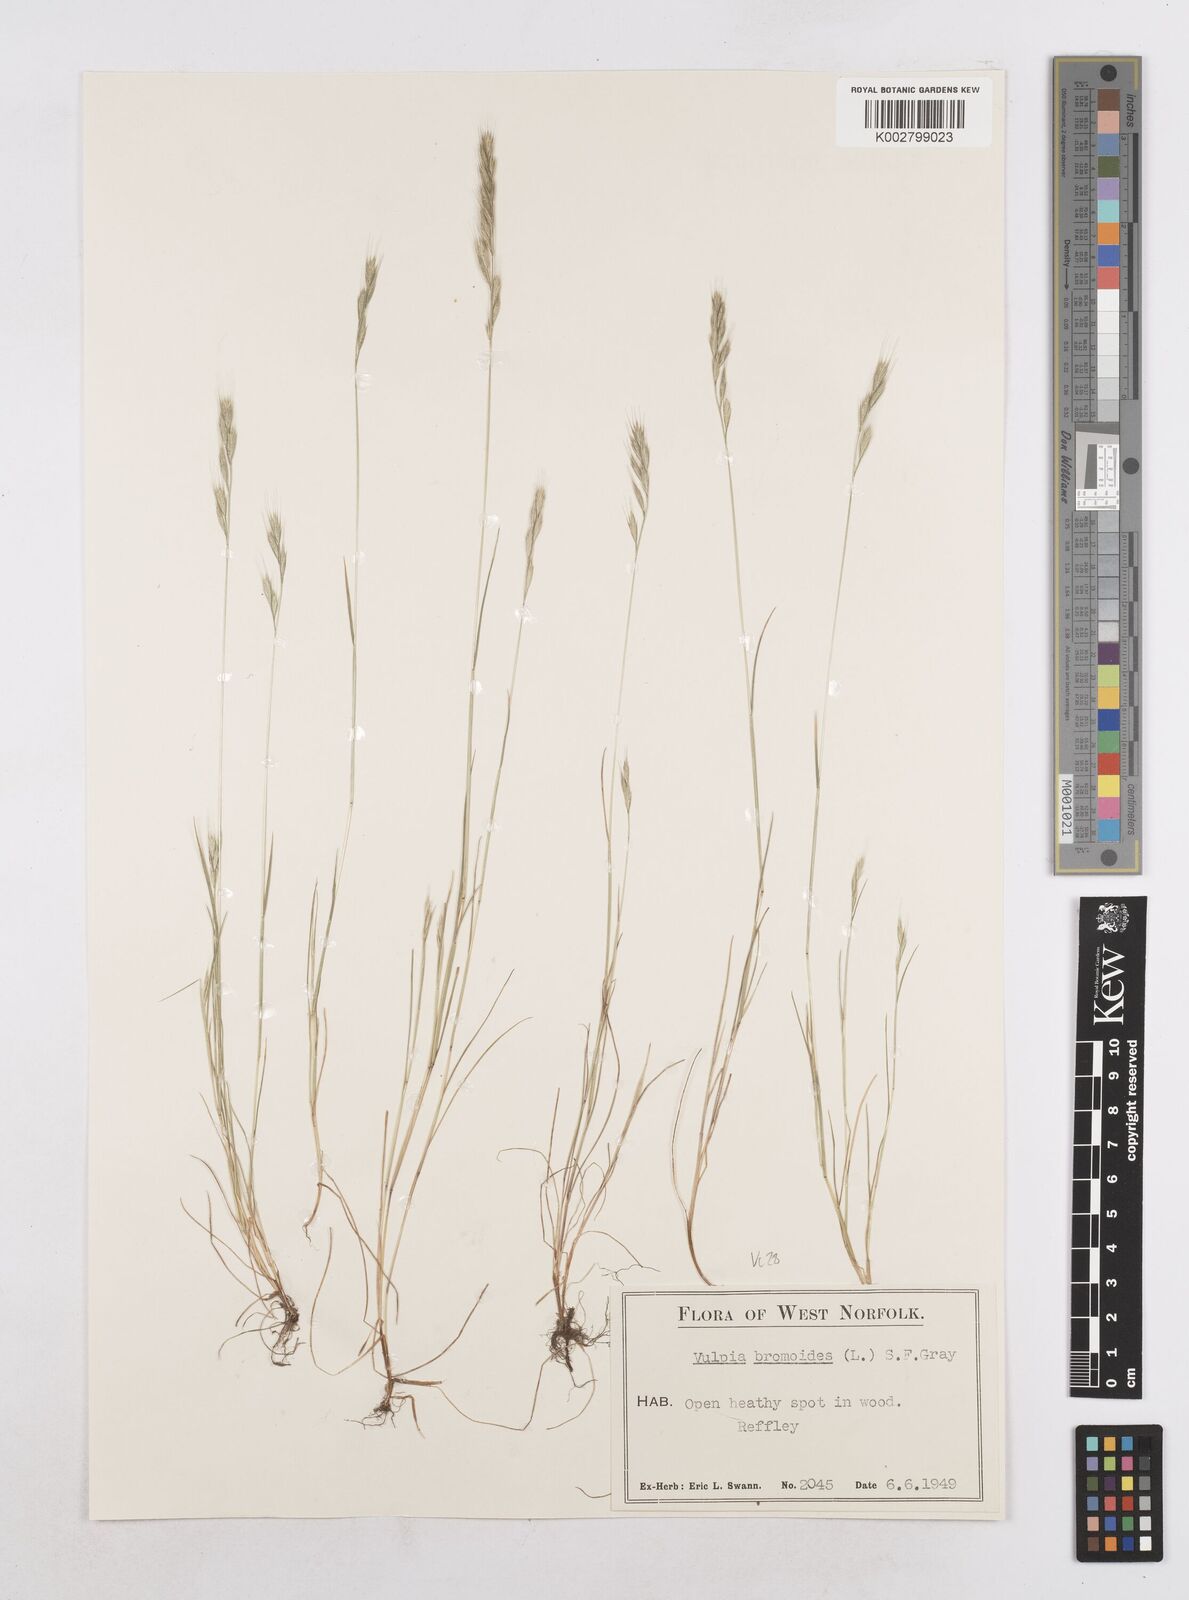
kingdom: Plantae
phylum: Tracheophyta
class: Liliopsida
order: Poales
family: Poaceae
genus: Festuca
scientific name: Festuca bromoides
